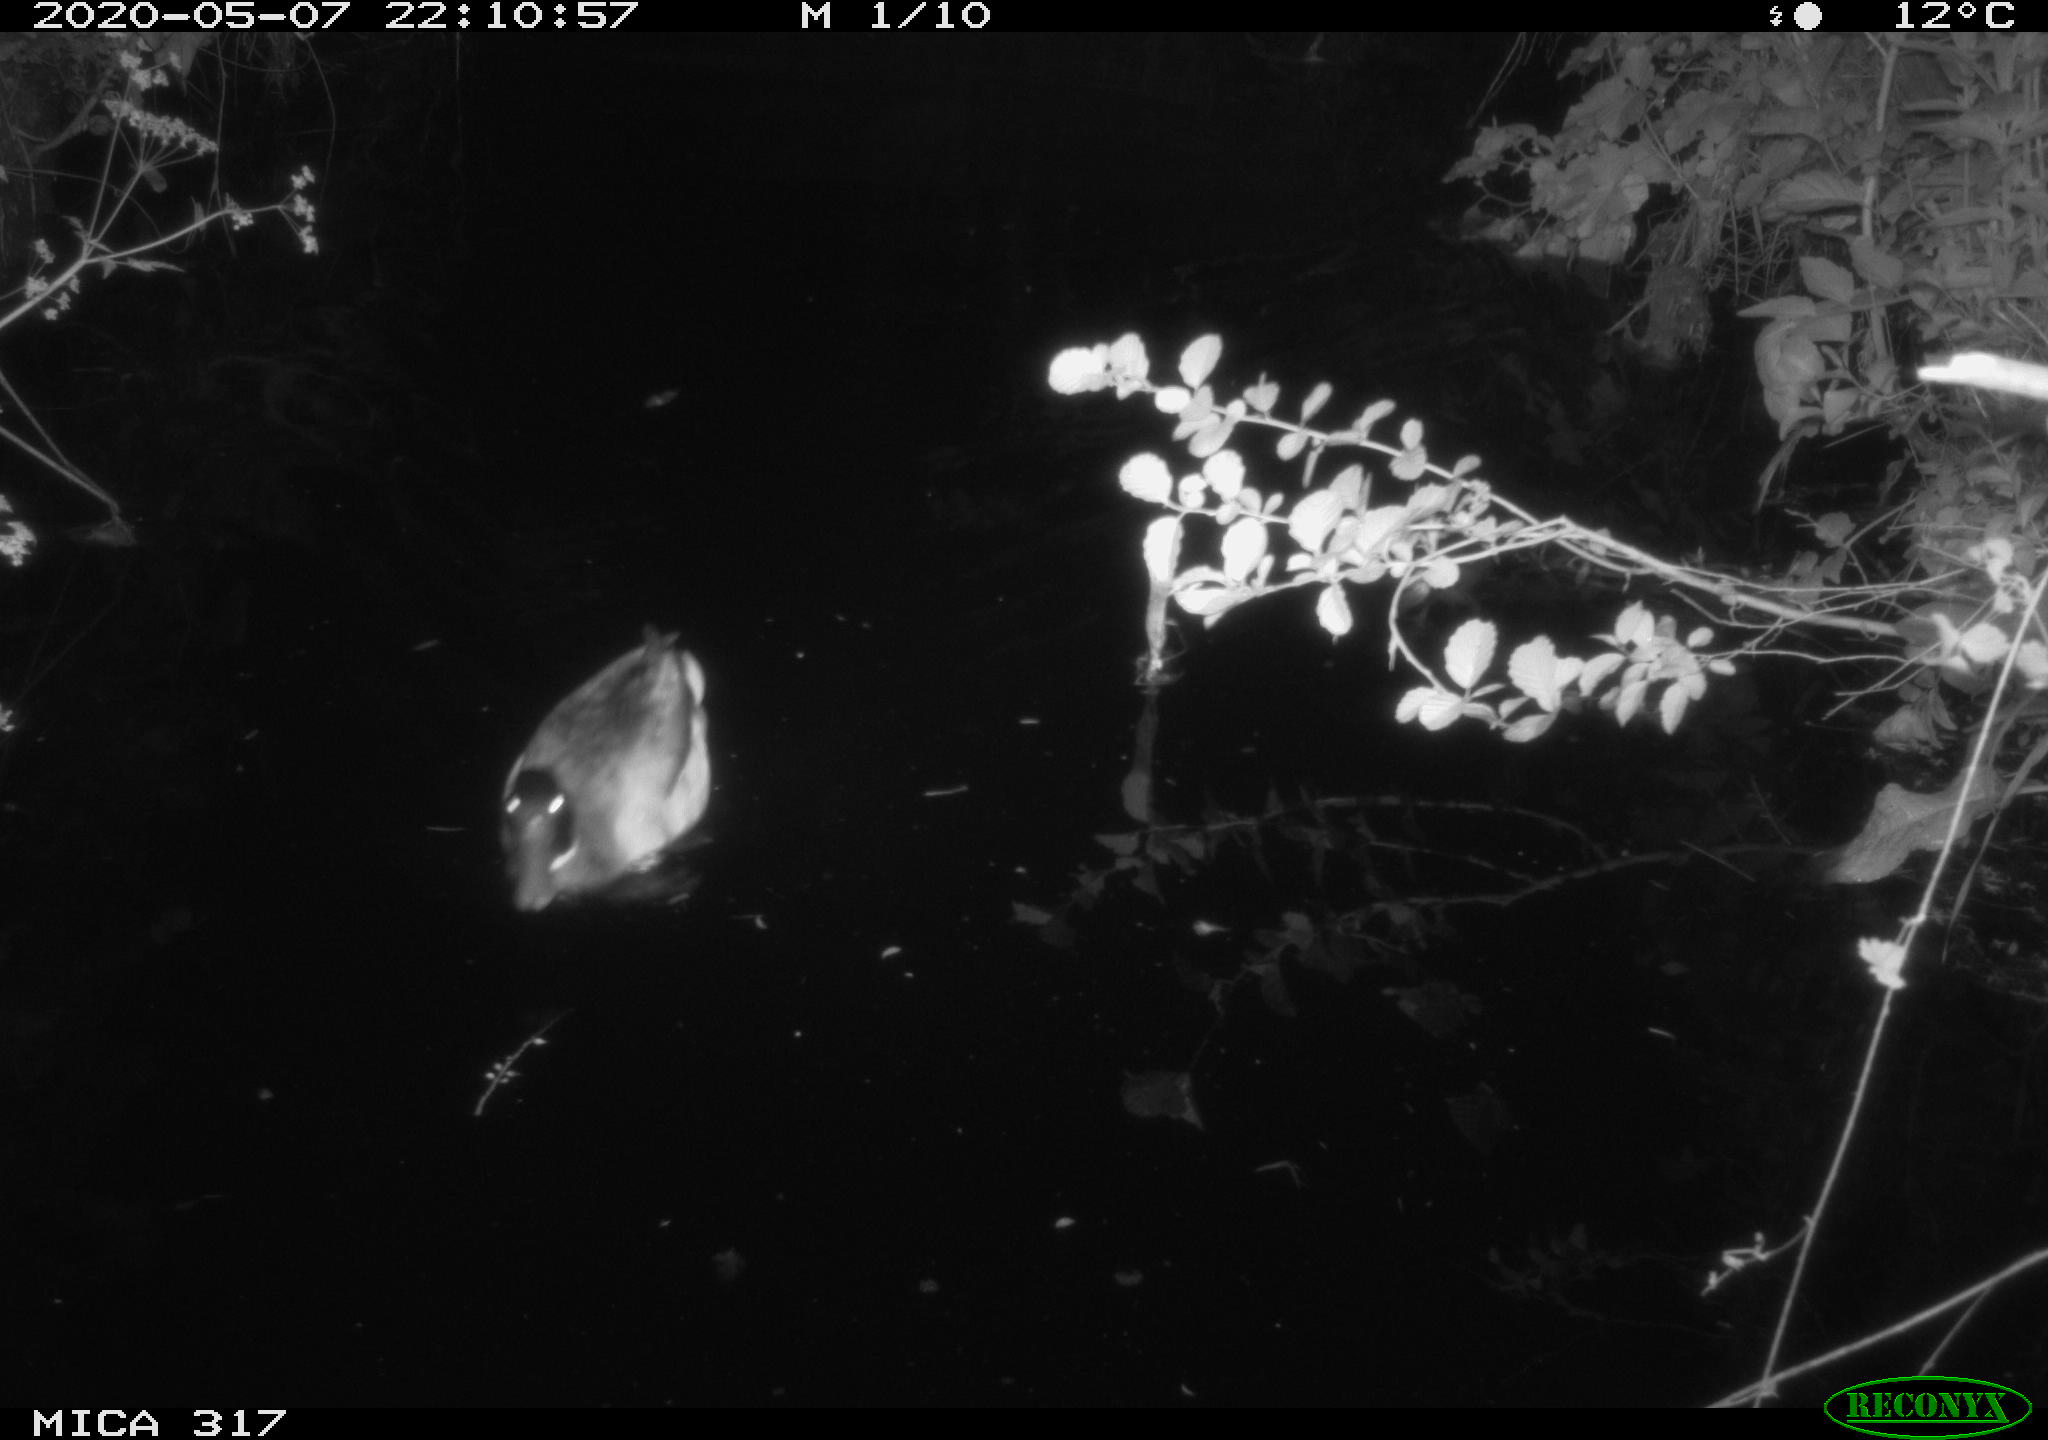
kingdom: Animalia
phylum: Chordata
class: Aves
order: Anseriformes
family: Anatidae
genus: Anas
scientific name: Anas platyrhynchos
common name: Mallard
